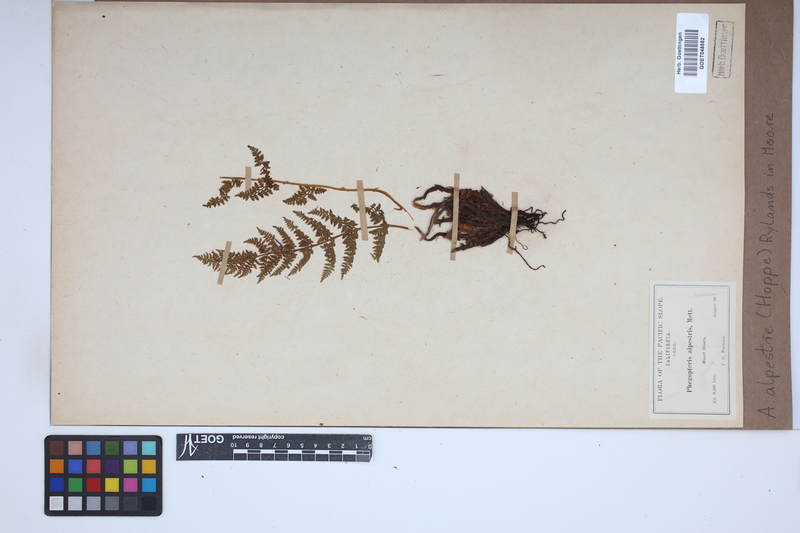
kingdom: Plantae
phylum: Tracheophyta
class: Polypodiopsida
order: Polypodiales
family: Athyriaceae
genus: Pseudathyrium
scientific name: Pseudathyrium alpestre
